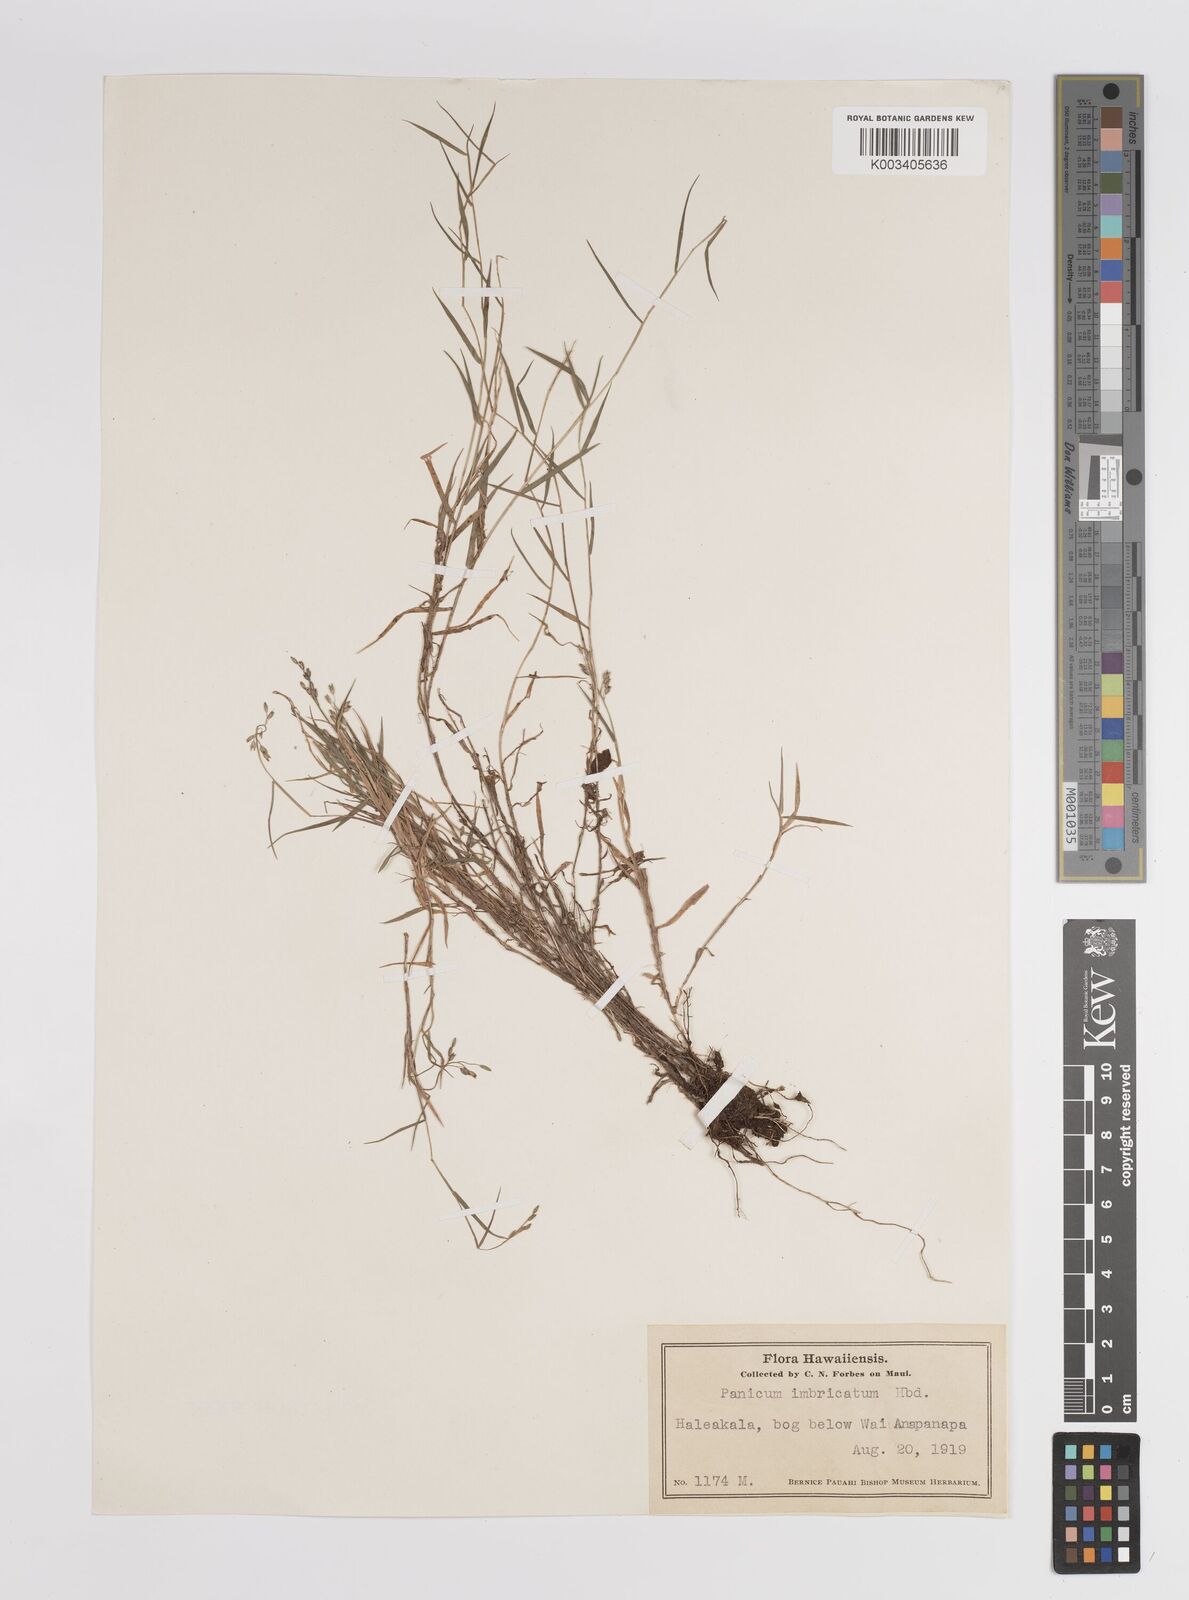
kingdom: Plantae
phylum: Tracheophyta
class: Liliopsida
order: Poales
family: Poaceae
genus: Dichanthelium
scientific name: Dichanthelium cynodon
